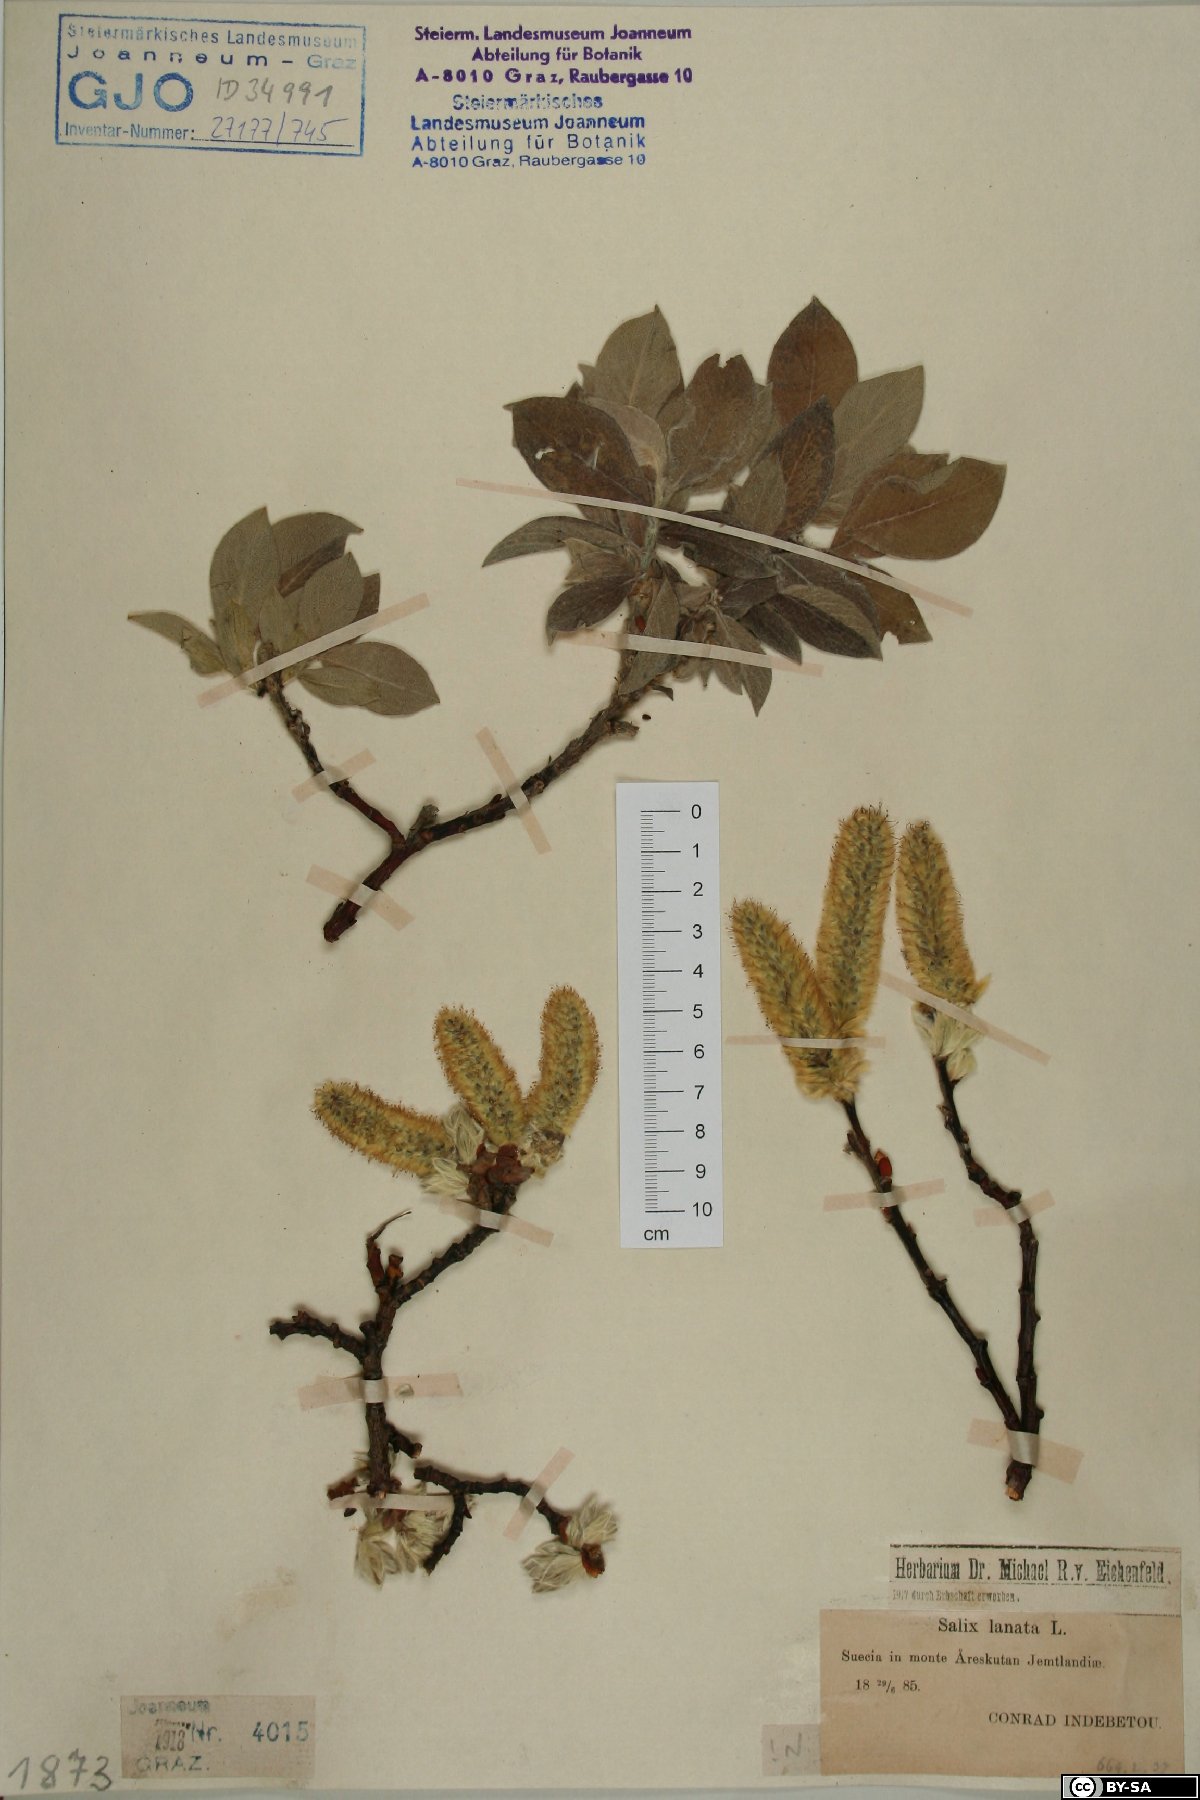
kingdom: Plantae
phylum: Tracheophyta
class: Magnoliopsida
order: Malpighiales
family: Salicaceae
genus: Salix
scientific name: Salix lanata
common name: Woolly willow
